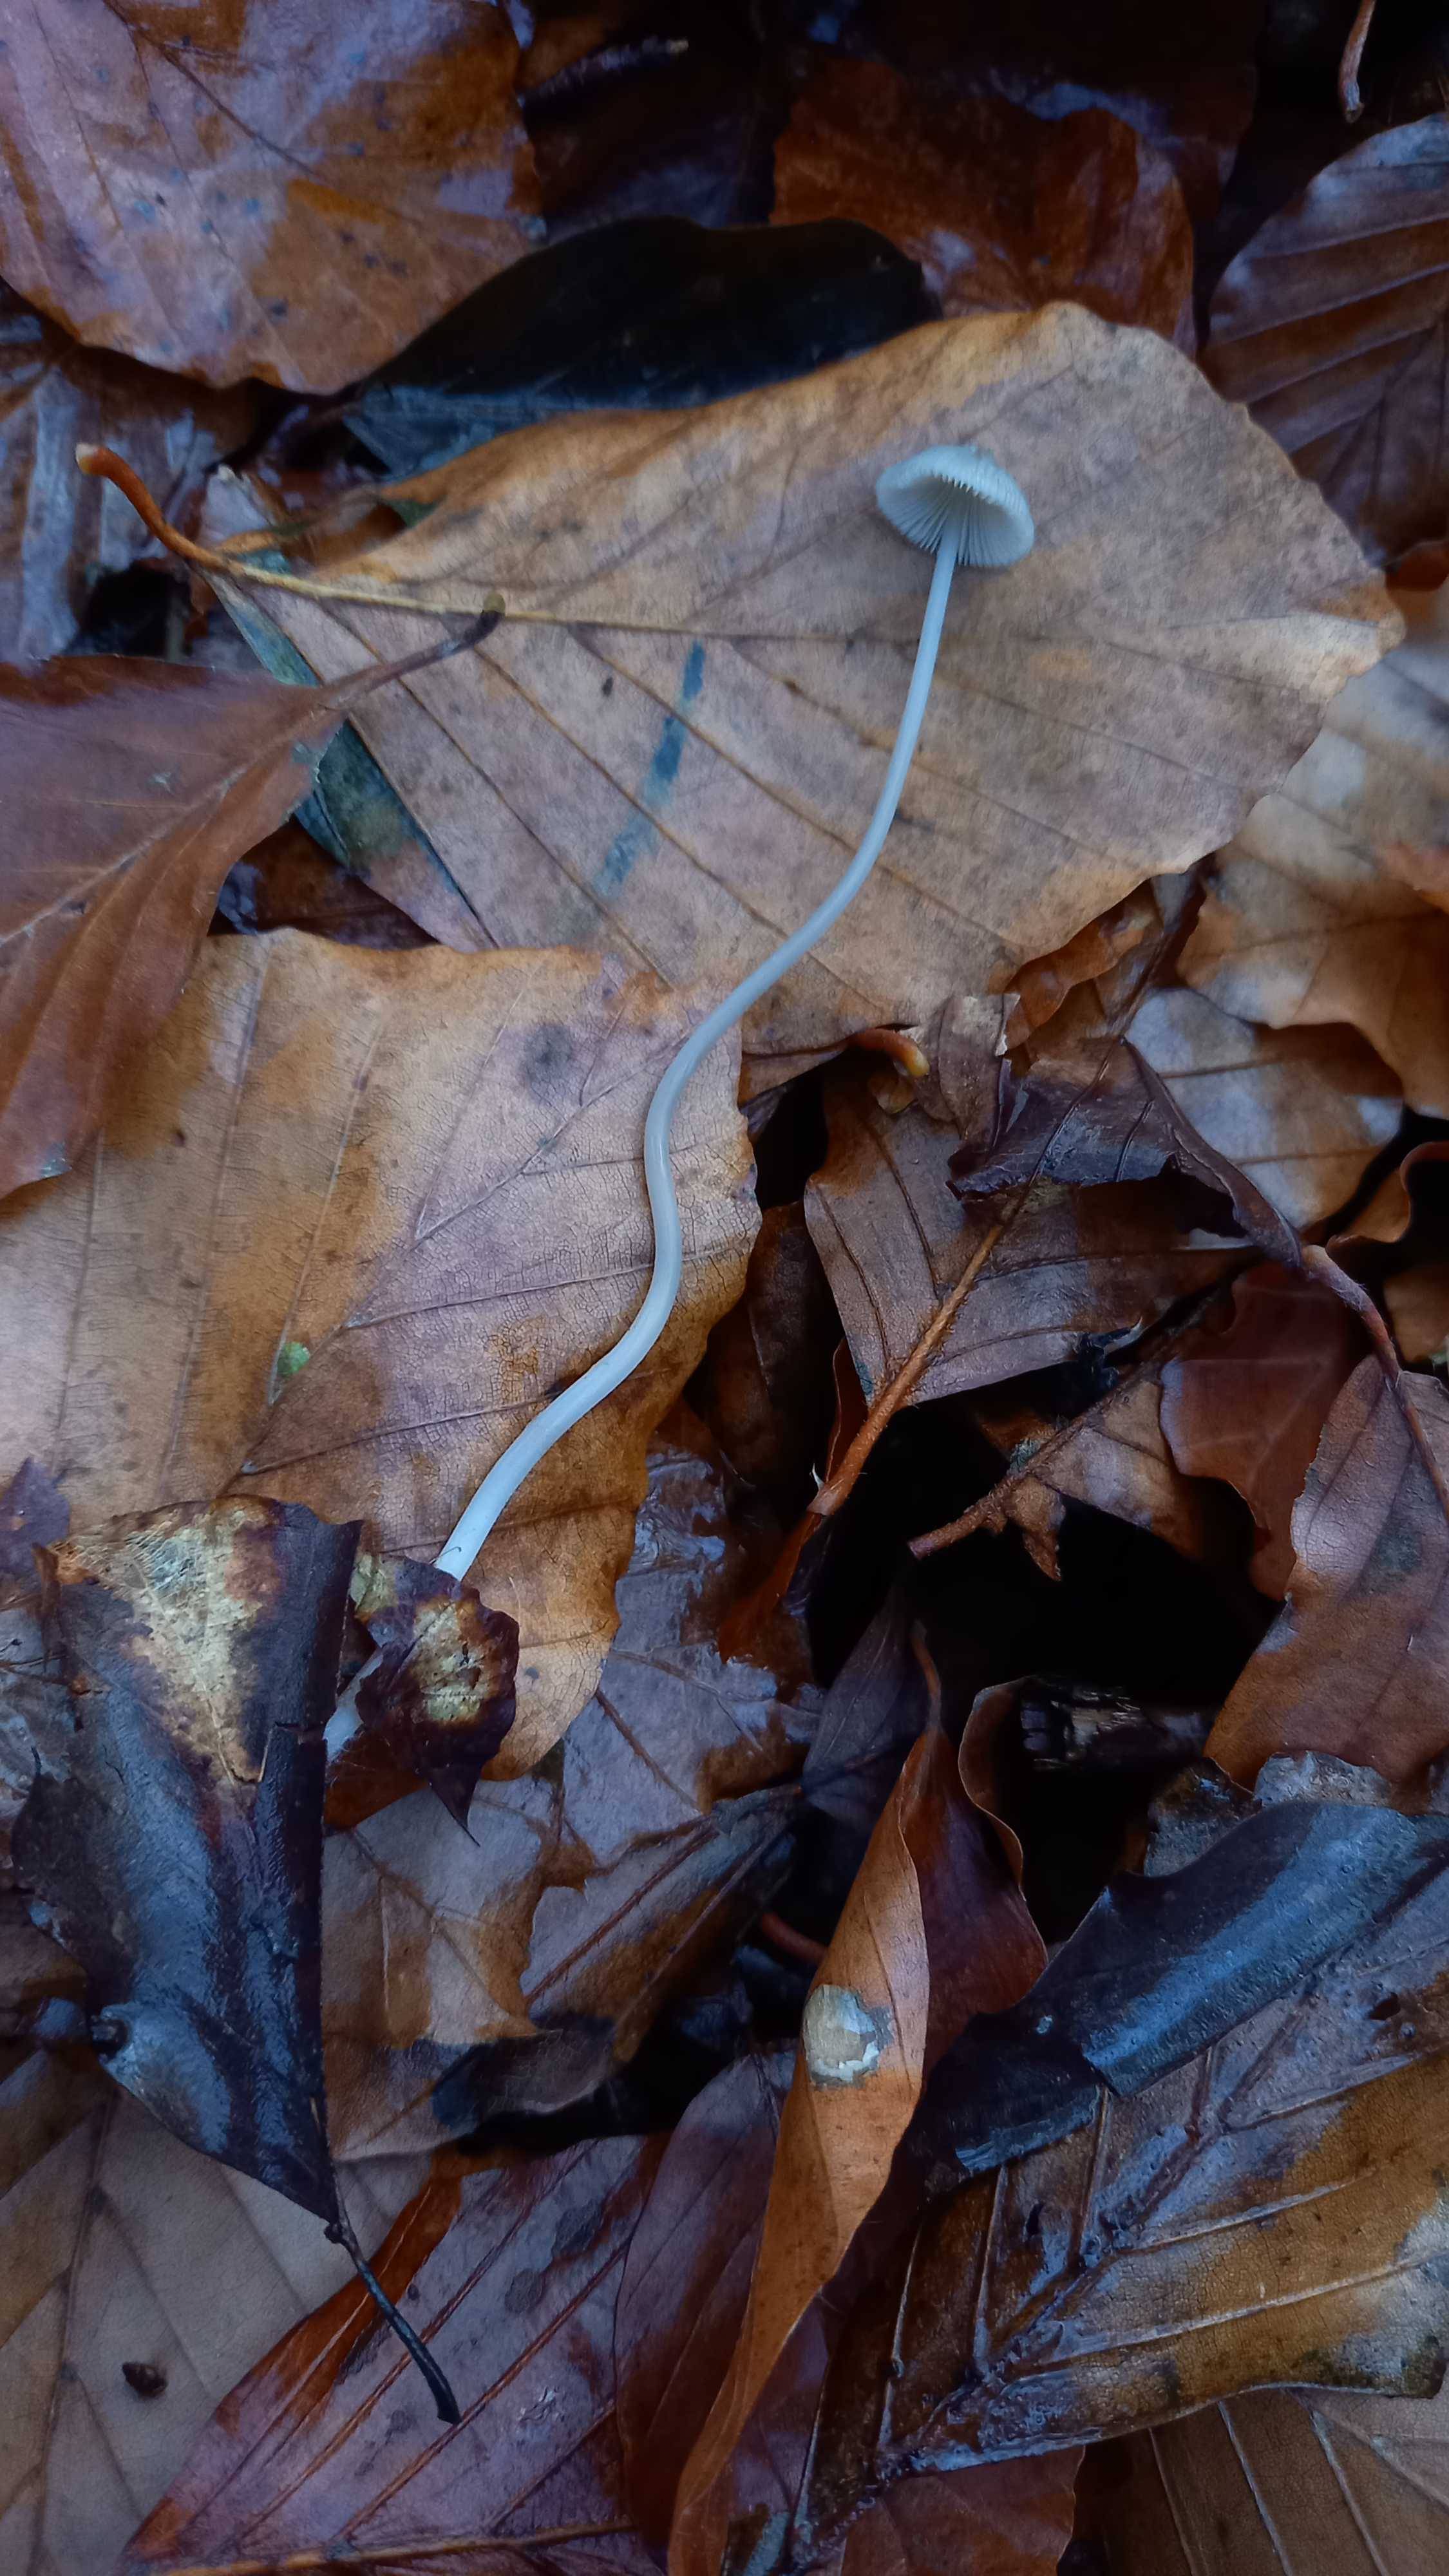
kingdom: Fungi
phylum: Basidiomycota
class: Agaricomycetes
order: Agaricales
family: Mycenaceae
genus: Mycena
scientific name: Mycena vitilis
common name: blankstokket huesvamp
